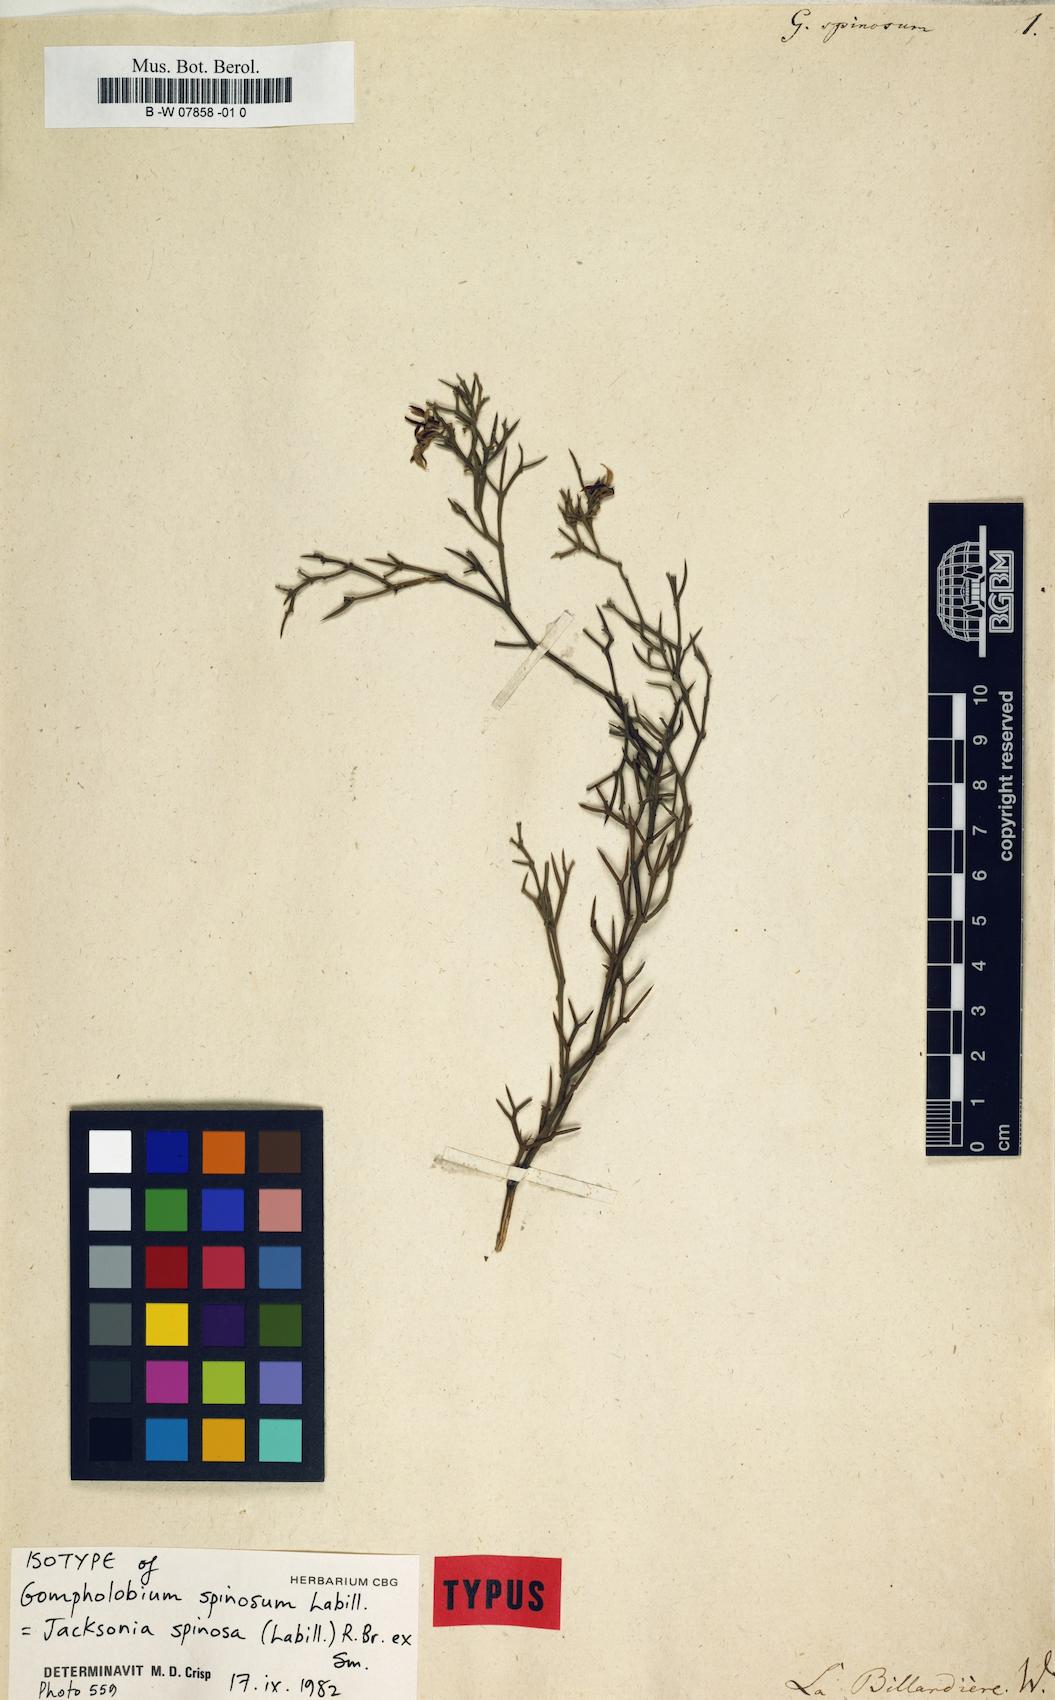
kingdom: Plantae
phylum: Tracheophyta
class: Magnoliopsida
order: Fabales
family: Fabaceae
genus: Jacksonia
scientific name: Jacksonia spinosa
